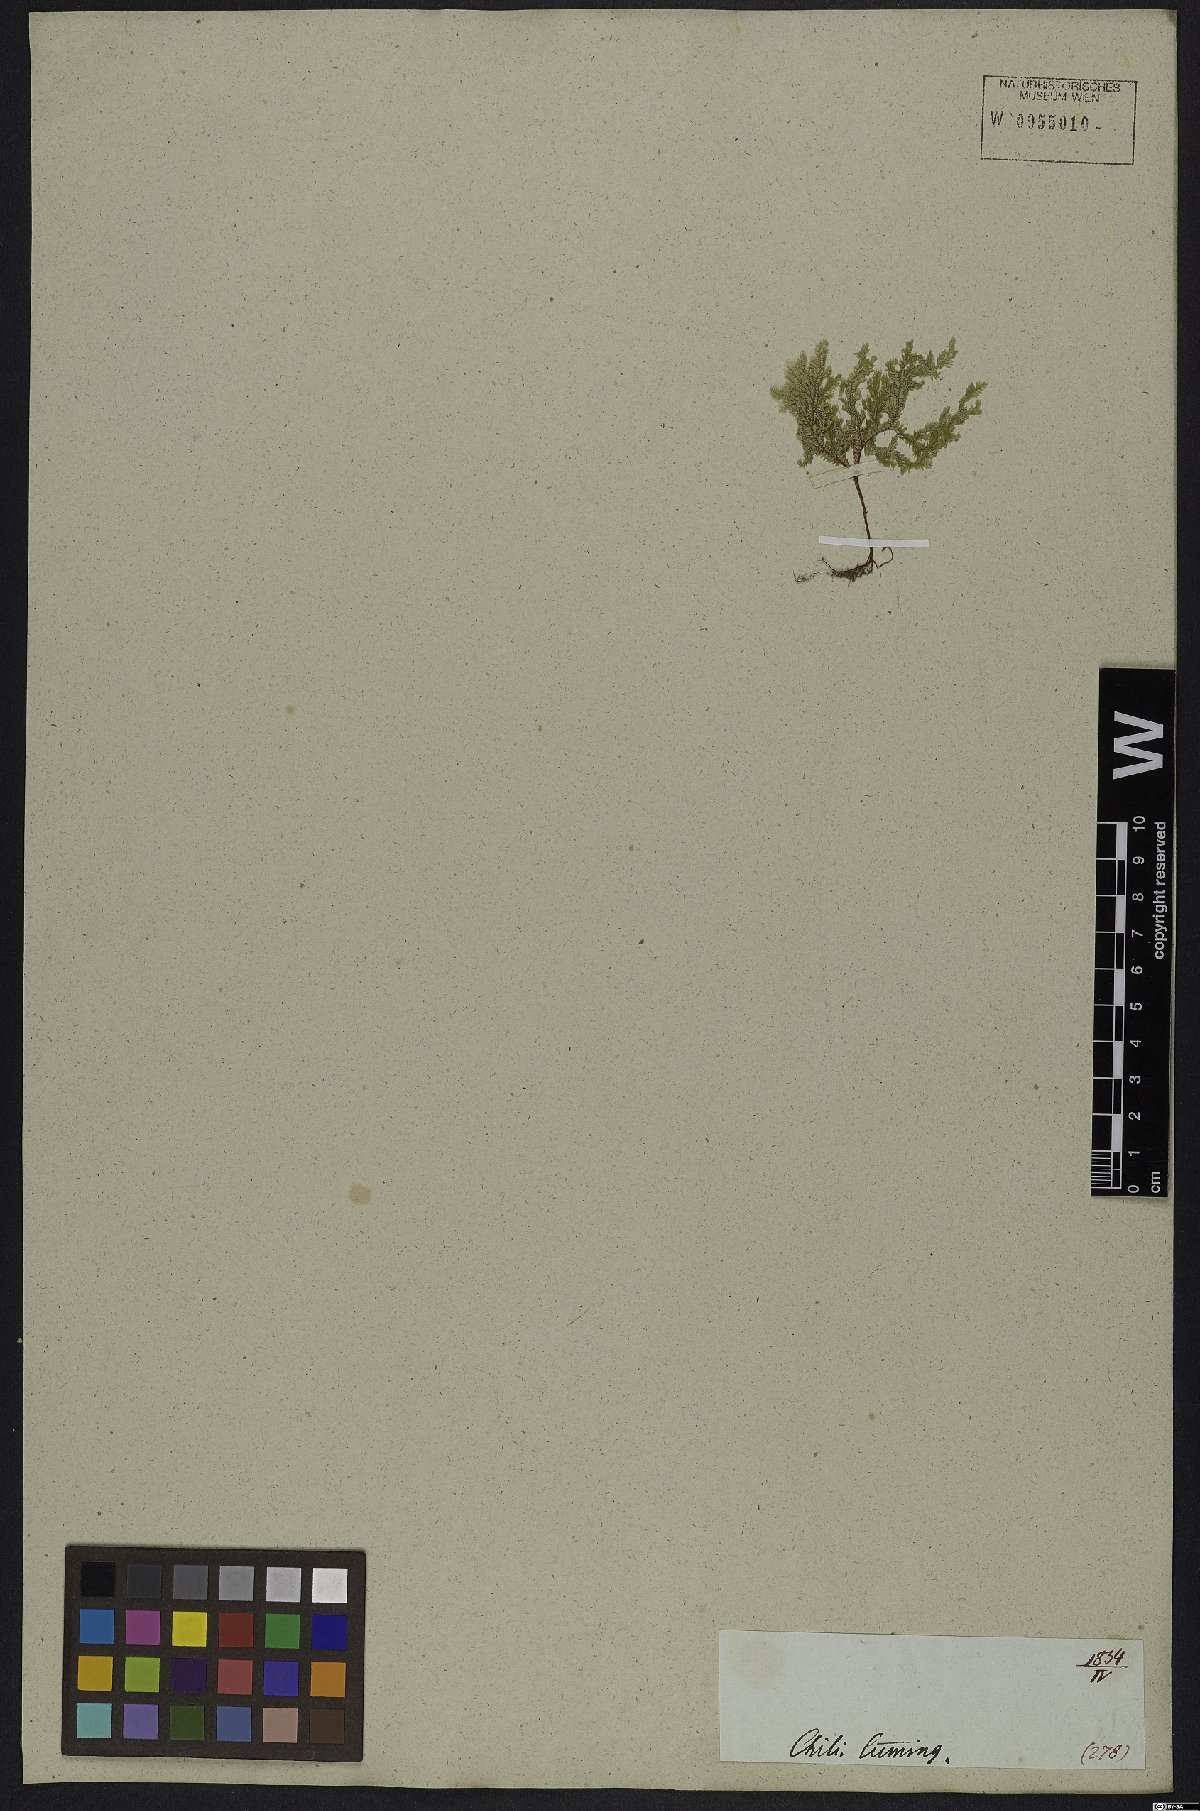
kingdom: Plantae
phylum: Tracheophyta
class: Lycopodiopsida
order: Selaginellales
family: Selaginellaceae
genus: Selaginella
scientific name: Selaginella erythropus
